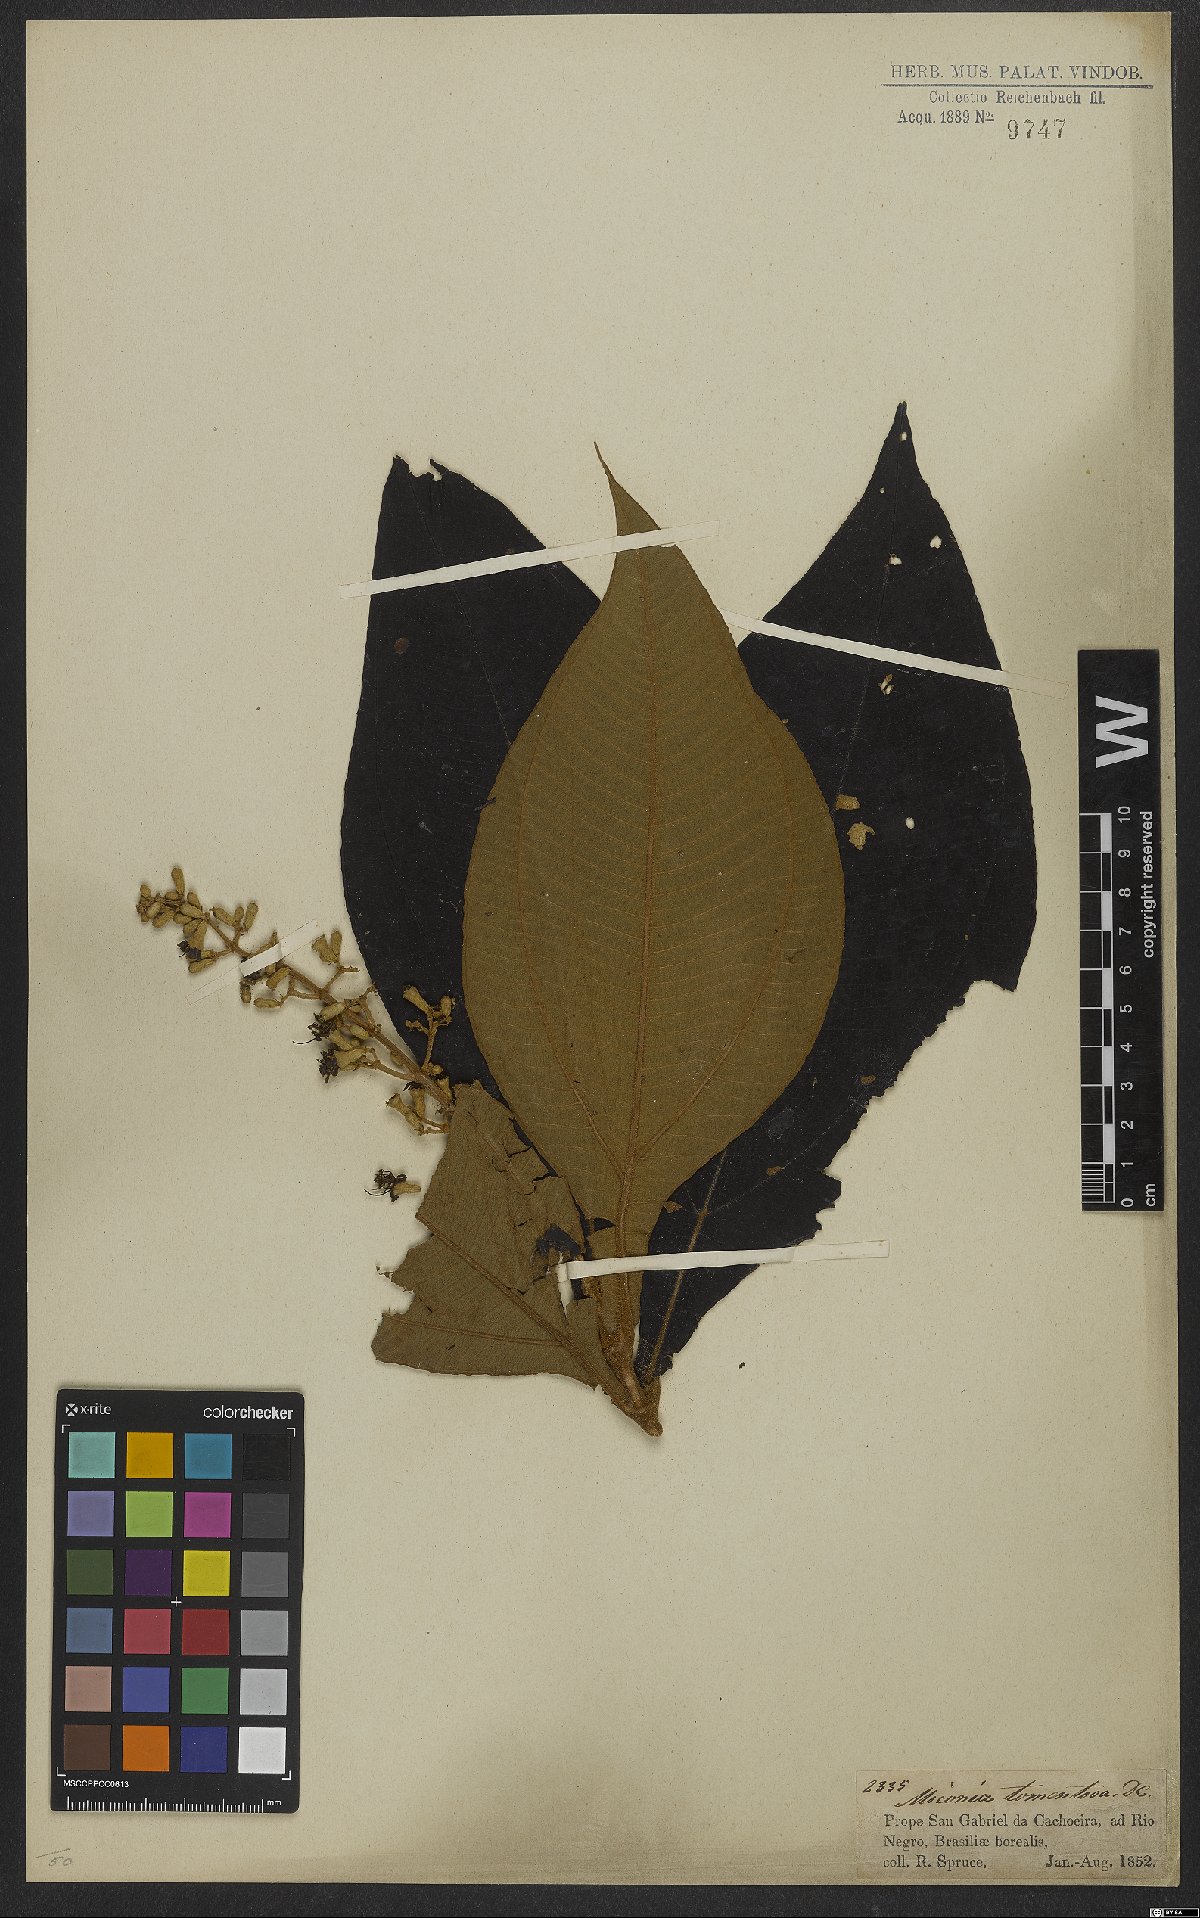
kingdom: Plantae
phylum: Tracheophyta
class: Magnoliopsida
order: Myrtales
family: Melastomataceae
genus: Miconia
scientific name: Miconia tomentosa
